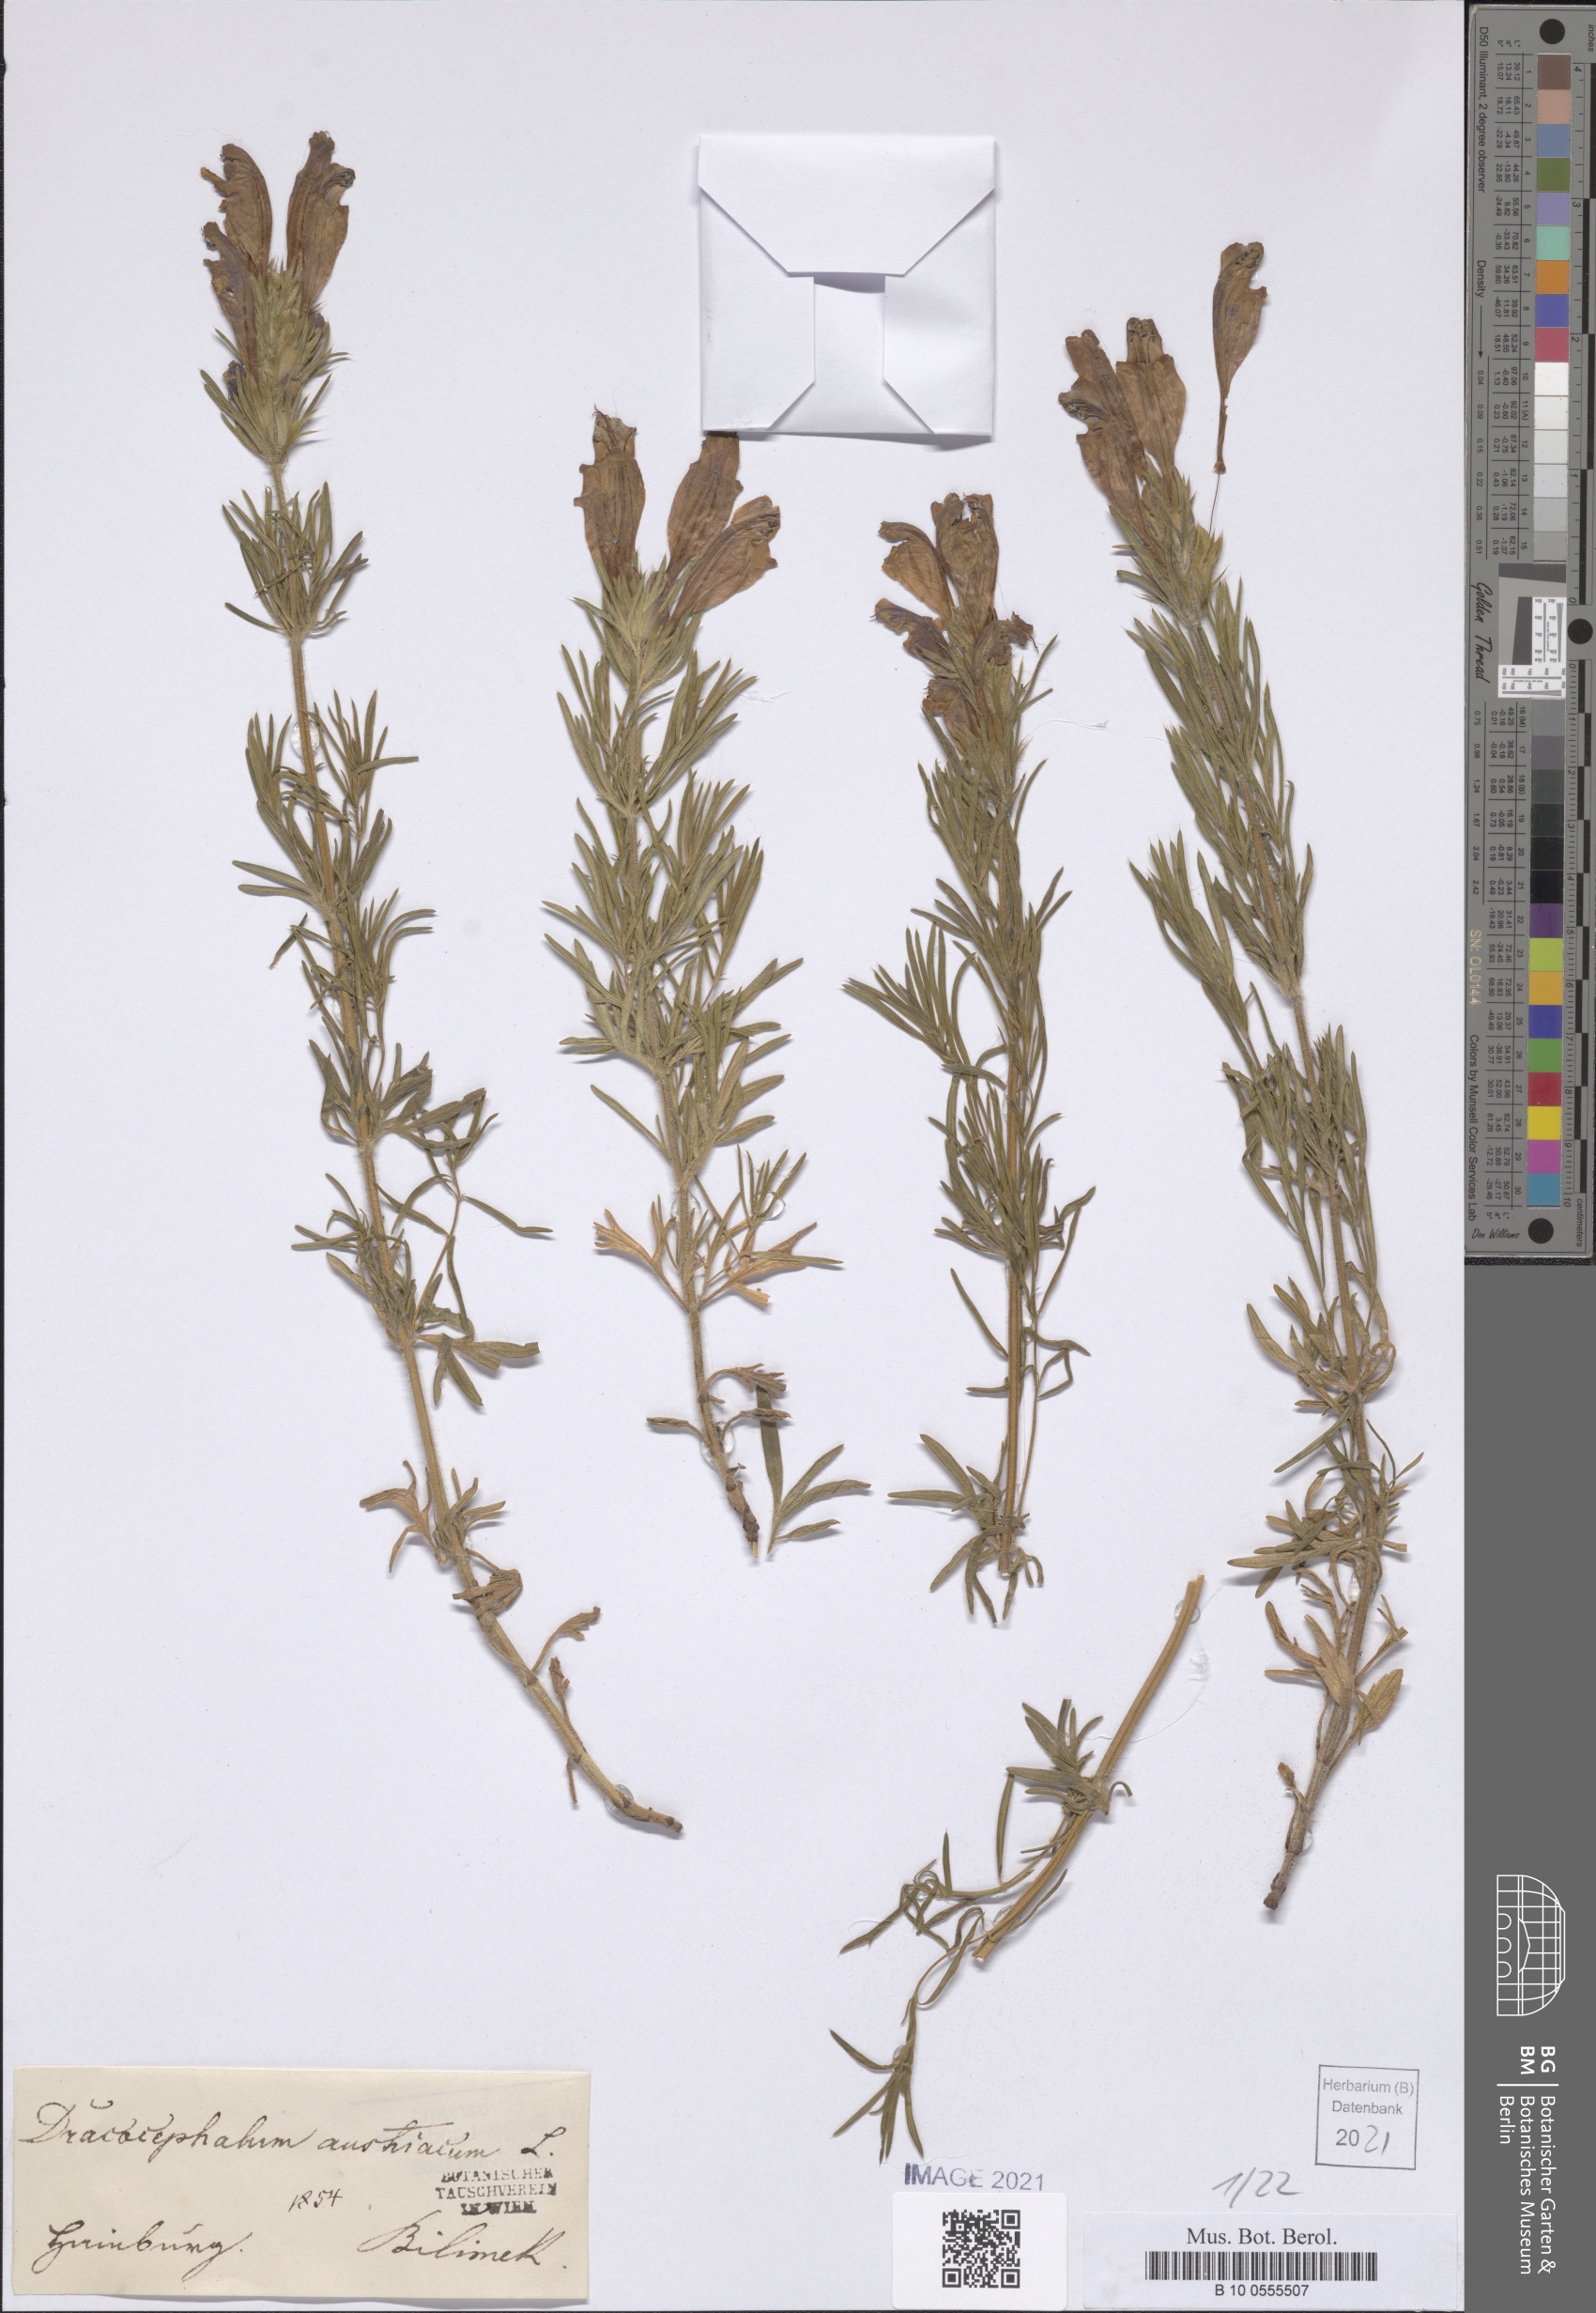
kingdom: Plantae
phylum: Tracheophyta
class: Magnoliopsida
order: Lamiales
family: Lamiaceae
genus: Dracocephalum
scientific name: Dracocephalum austriacum
